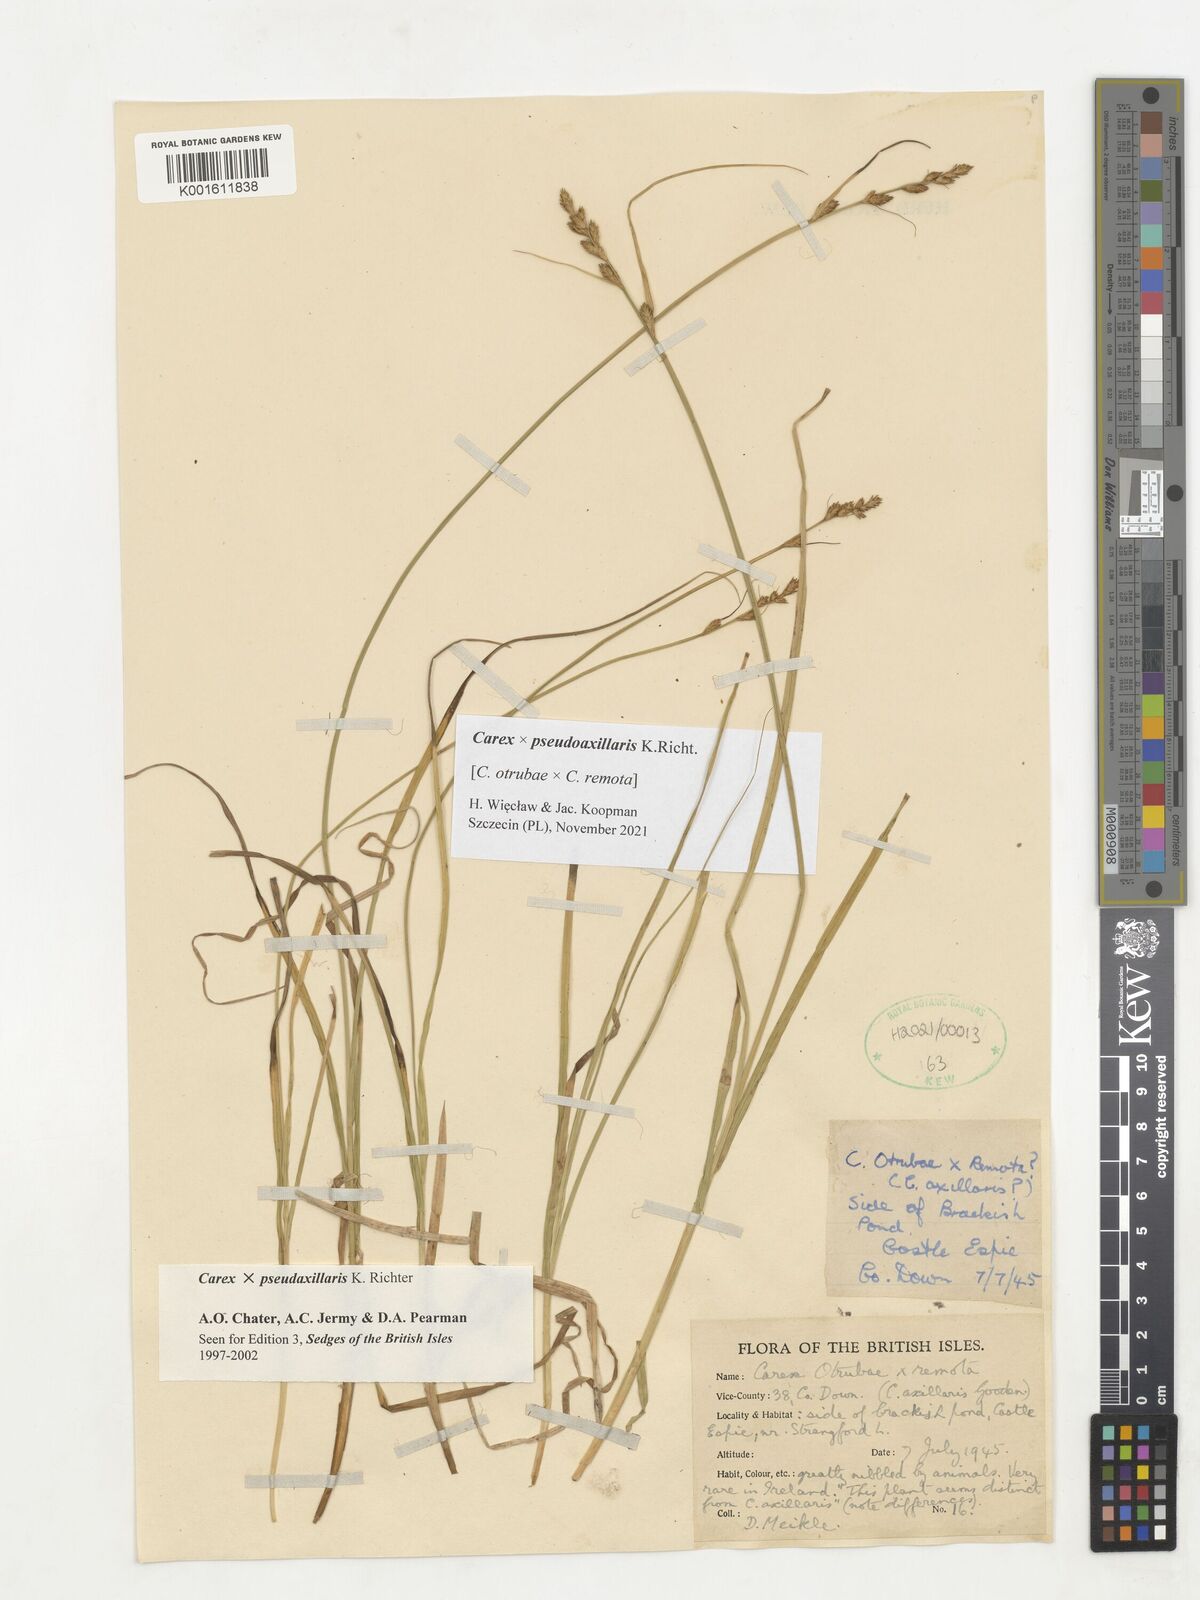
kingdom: Plantae
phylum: Tracheophyta
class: Liliopsida
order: Poales
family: Cyperaceae
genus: Carex
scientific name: Carex pseudoaxillaris
